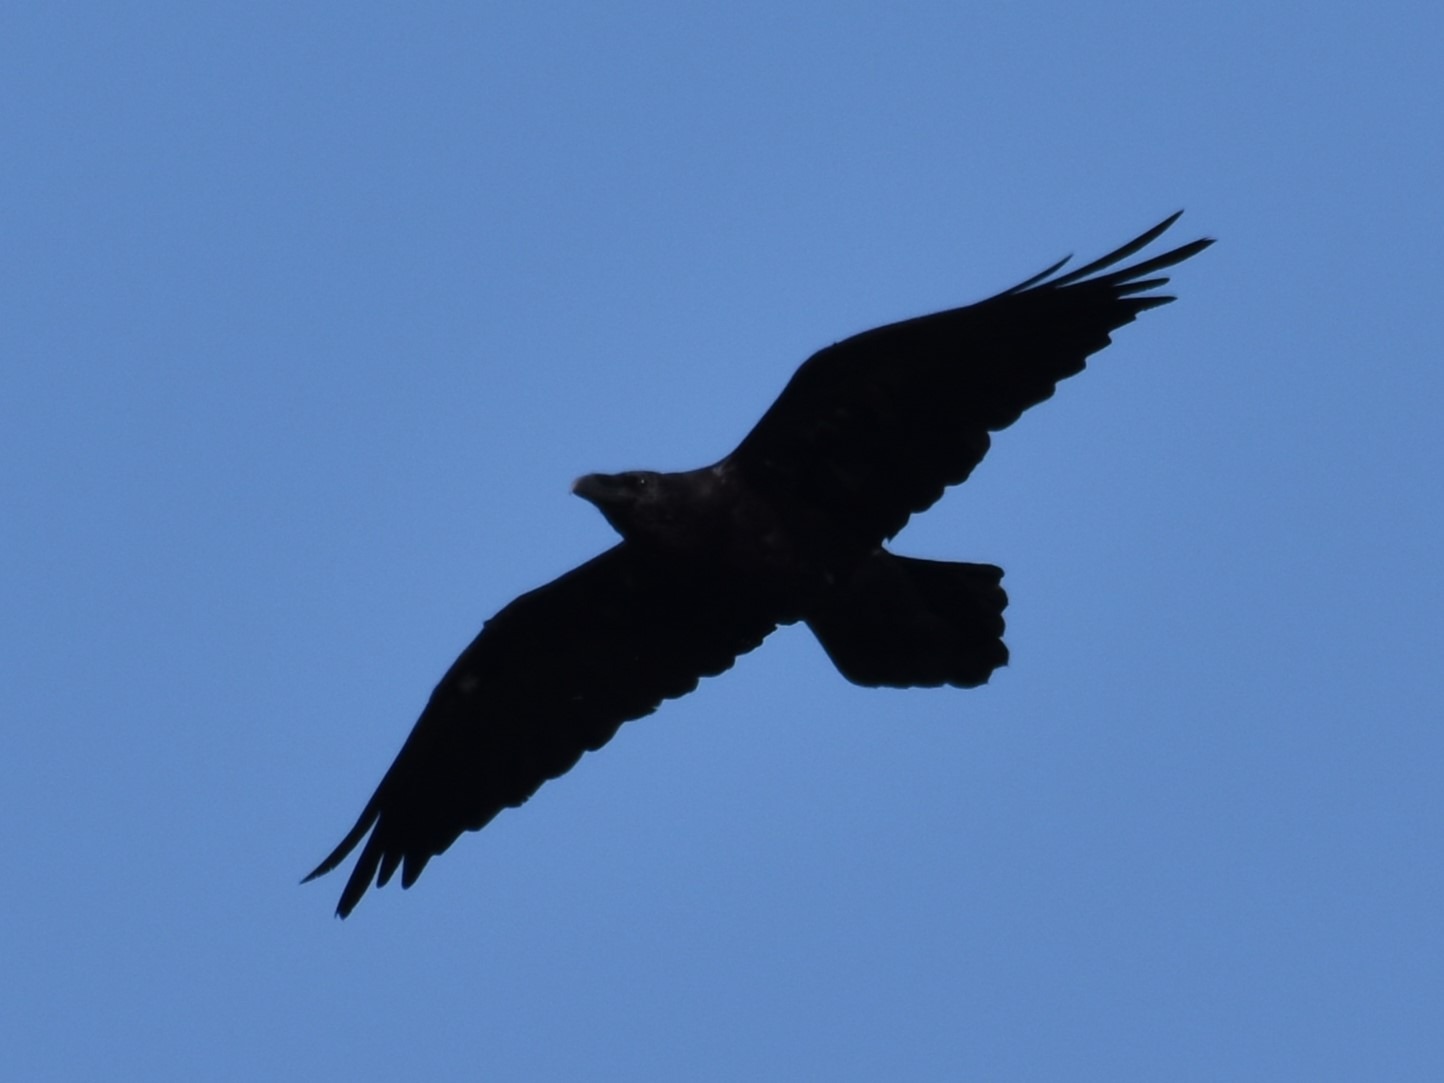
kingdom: Animalia
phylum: Chordata
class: Aves
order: Passeriformes
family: Corvidae
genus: Corvus
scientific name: Corvus corax
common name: Ravn
